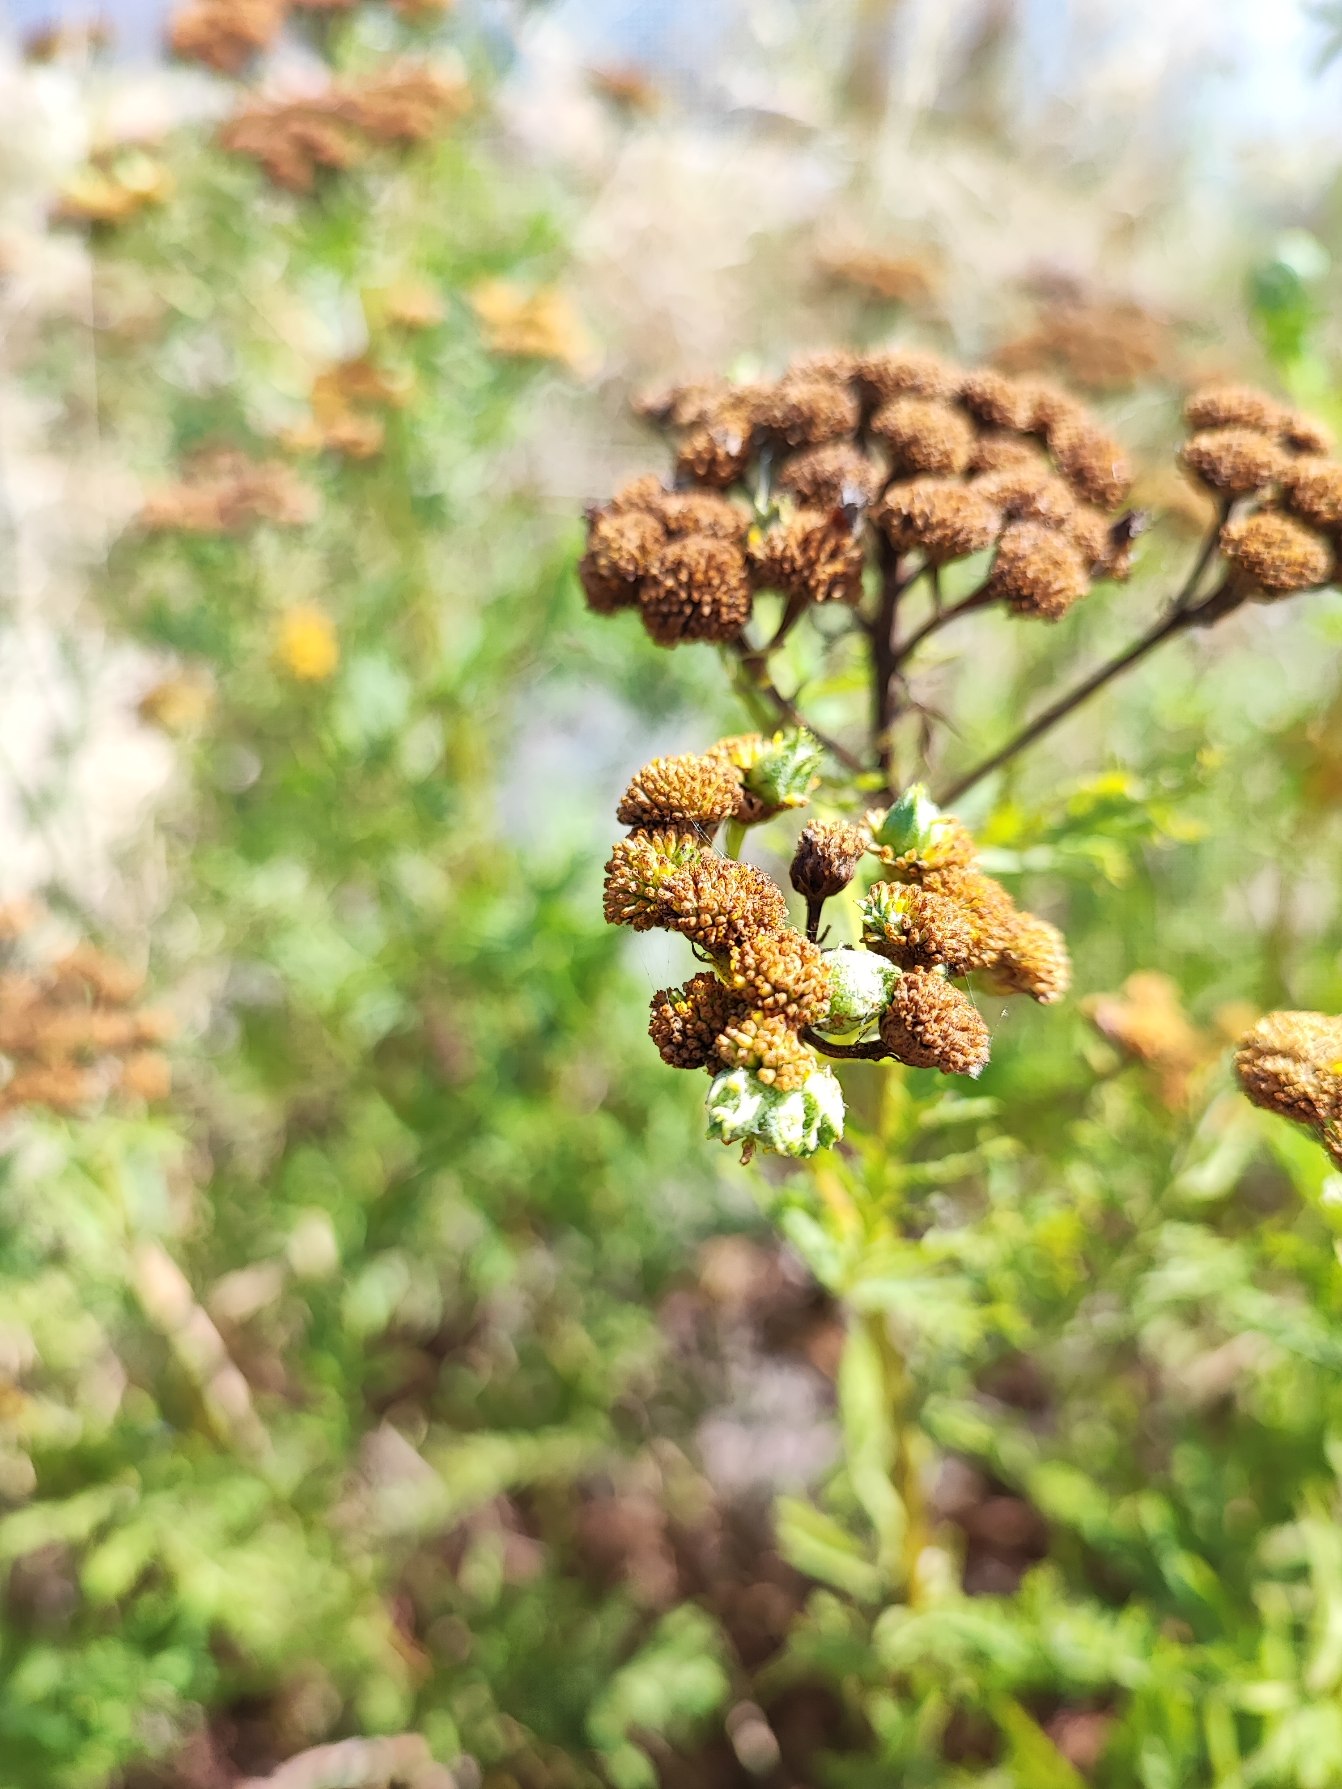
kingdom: Animalia
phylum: Arthropoda
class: Insecta
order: Diptera
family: Cecidomyiidae
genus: Rhopalomyia
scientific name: Rhopalomyia tanaceticolus
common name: Rejnfangalmyg
